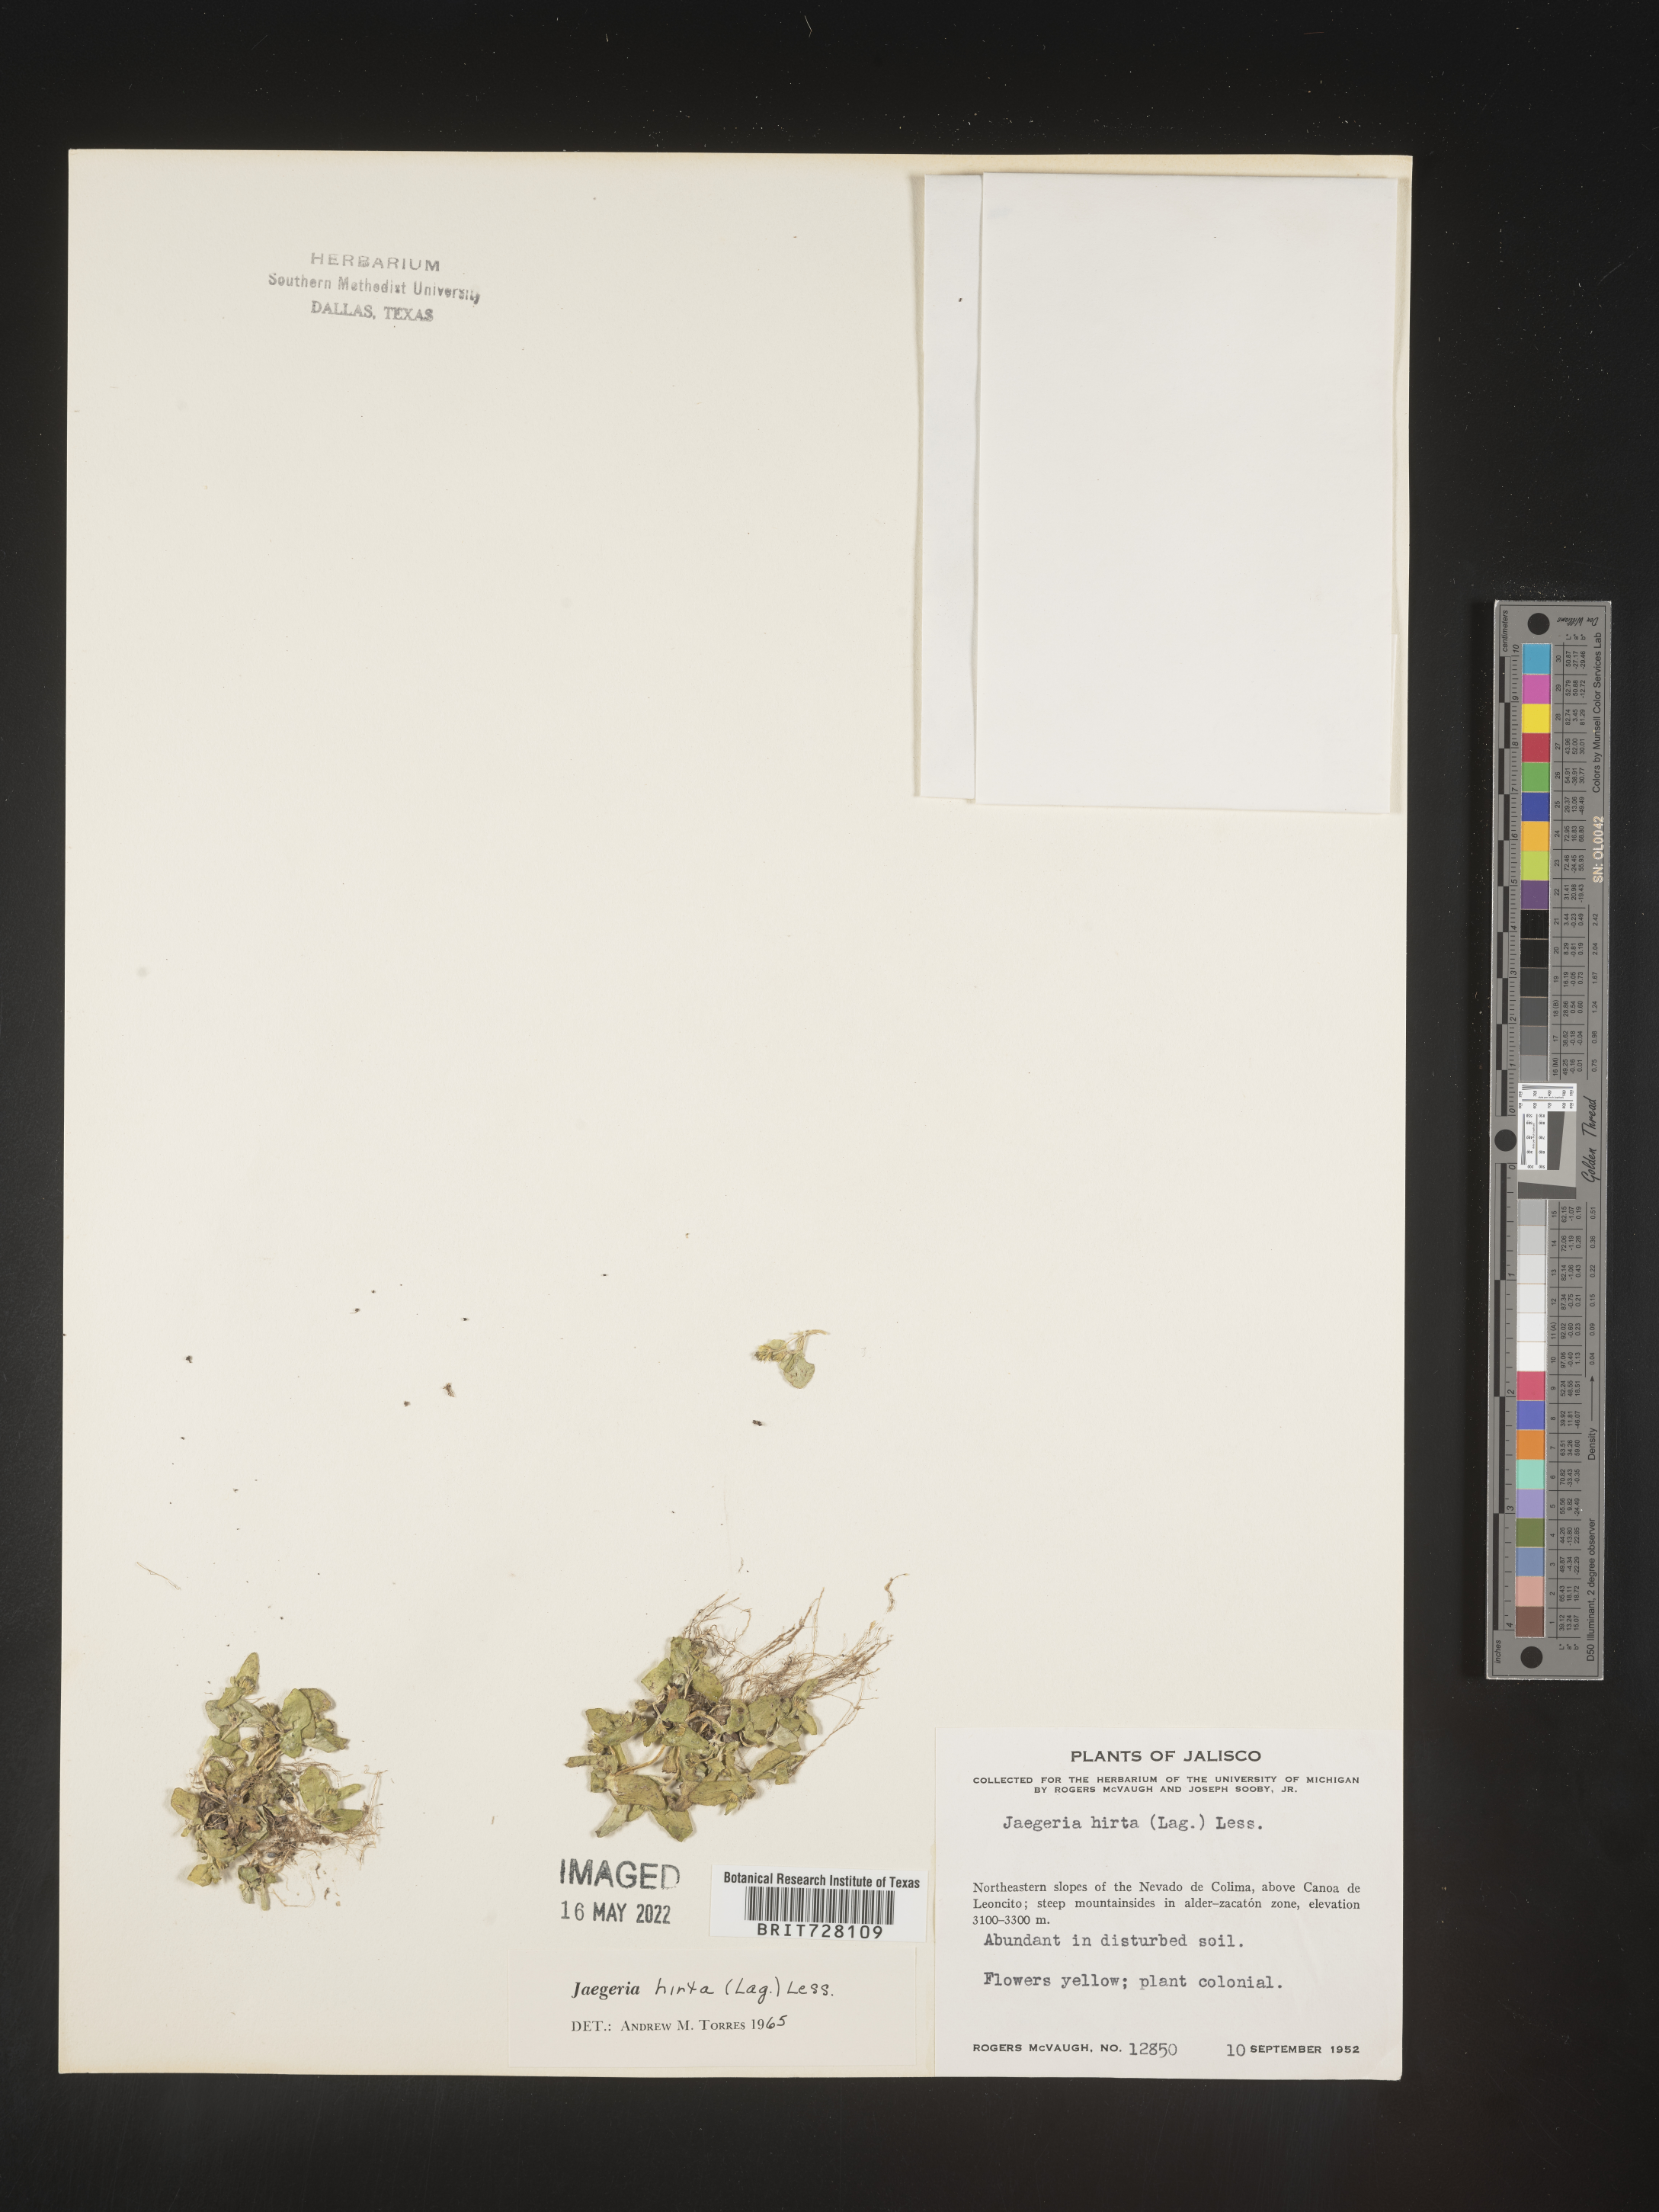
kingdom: Plantae
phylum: Tracheophyta
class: Magnoliopsida
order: Asterales
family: Asteraceae
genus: Jaegeria
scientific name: Jaegeria
